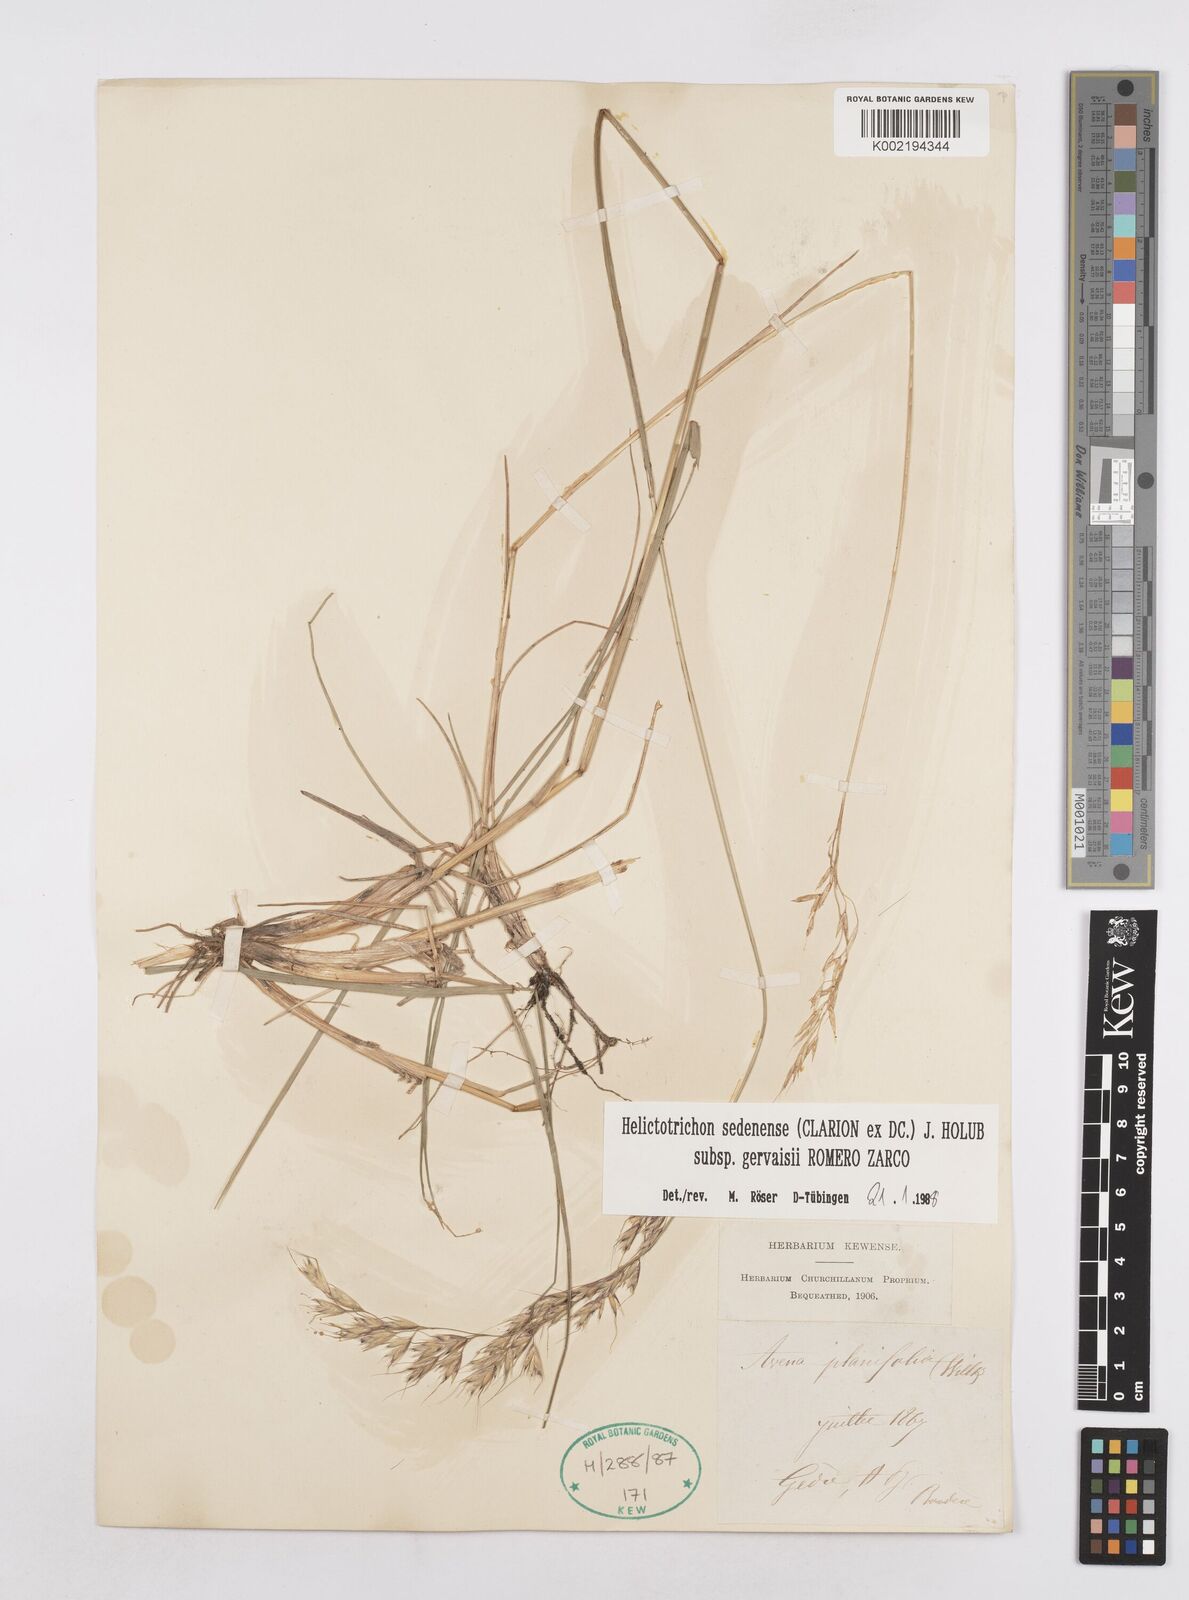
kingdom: Plantae
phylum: Tracheophyta
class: Liliopsida
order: Poales
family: Poaceae
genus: Helictotrichon
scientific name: Helictotrichon sedenense
